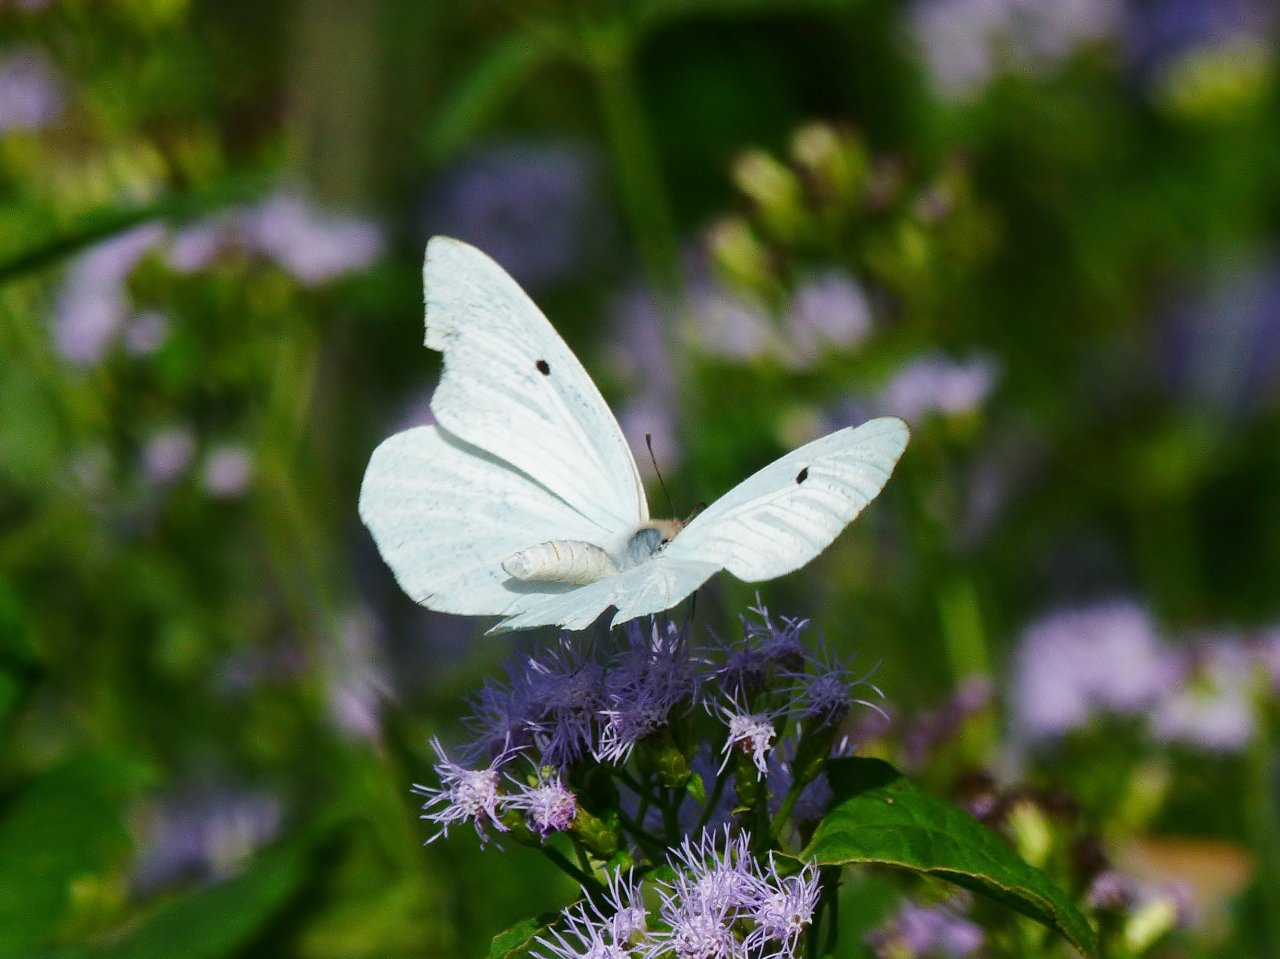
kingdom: Animalia
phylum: Arthropoda
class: Insecta
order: Lepidoptera
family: Pieridae
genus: Ascia
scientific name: Ascia monuste
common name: Great Southern White
